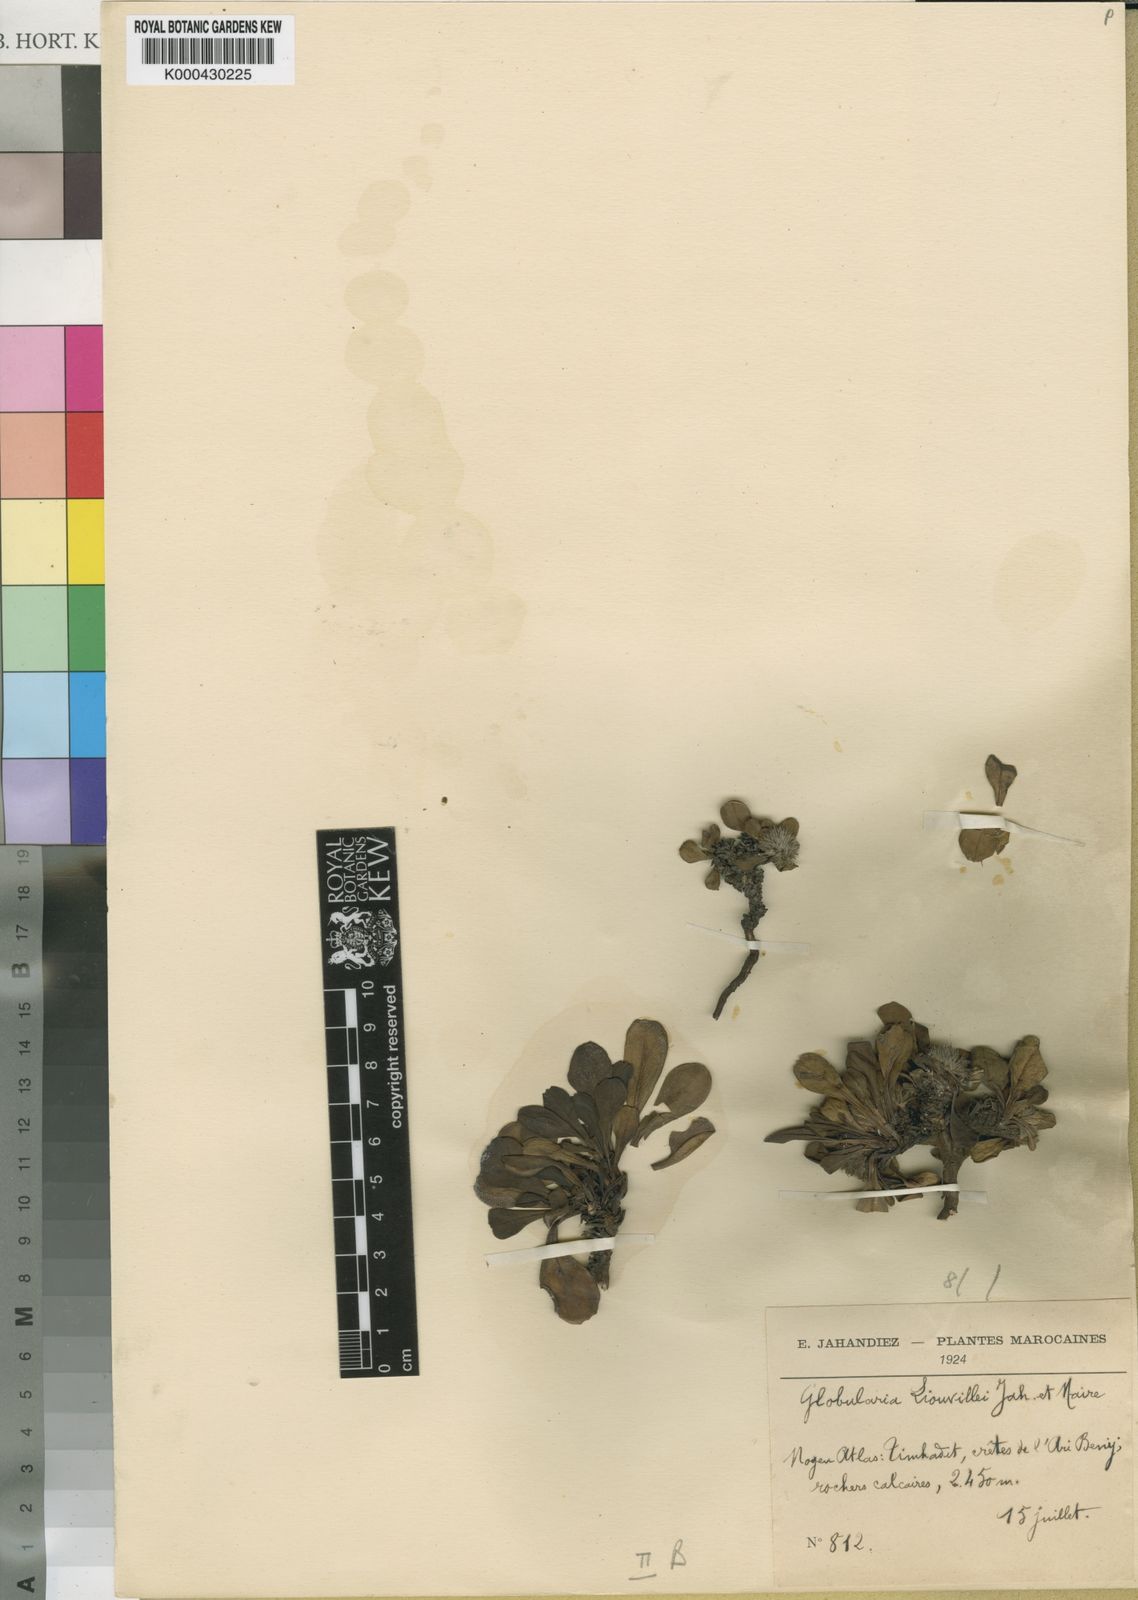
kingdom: Plantae
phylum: Tracheophyta
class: Magnoliopsida
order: Lamiales
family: Plantaginaceae
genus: Globularia
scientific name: Globularia liouvillei
